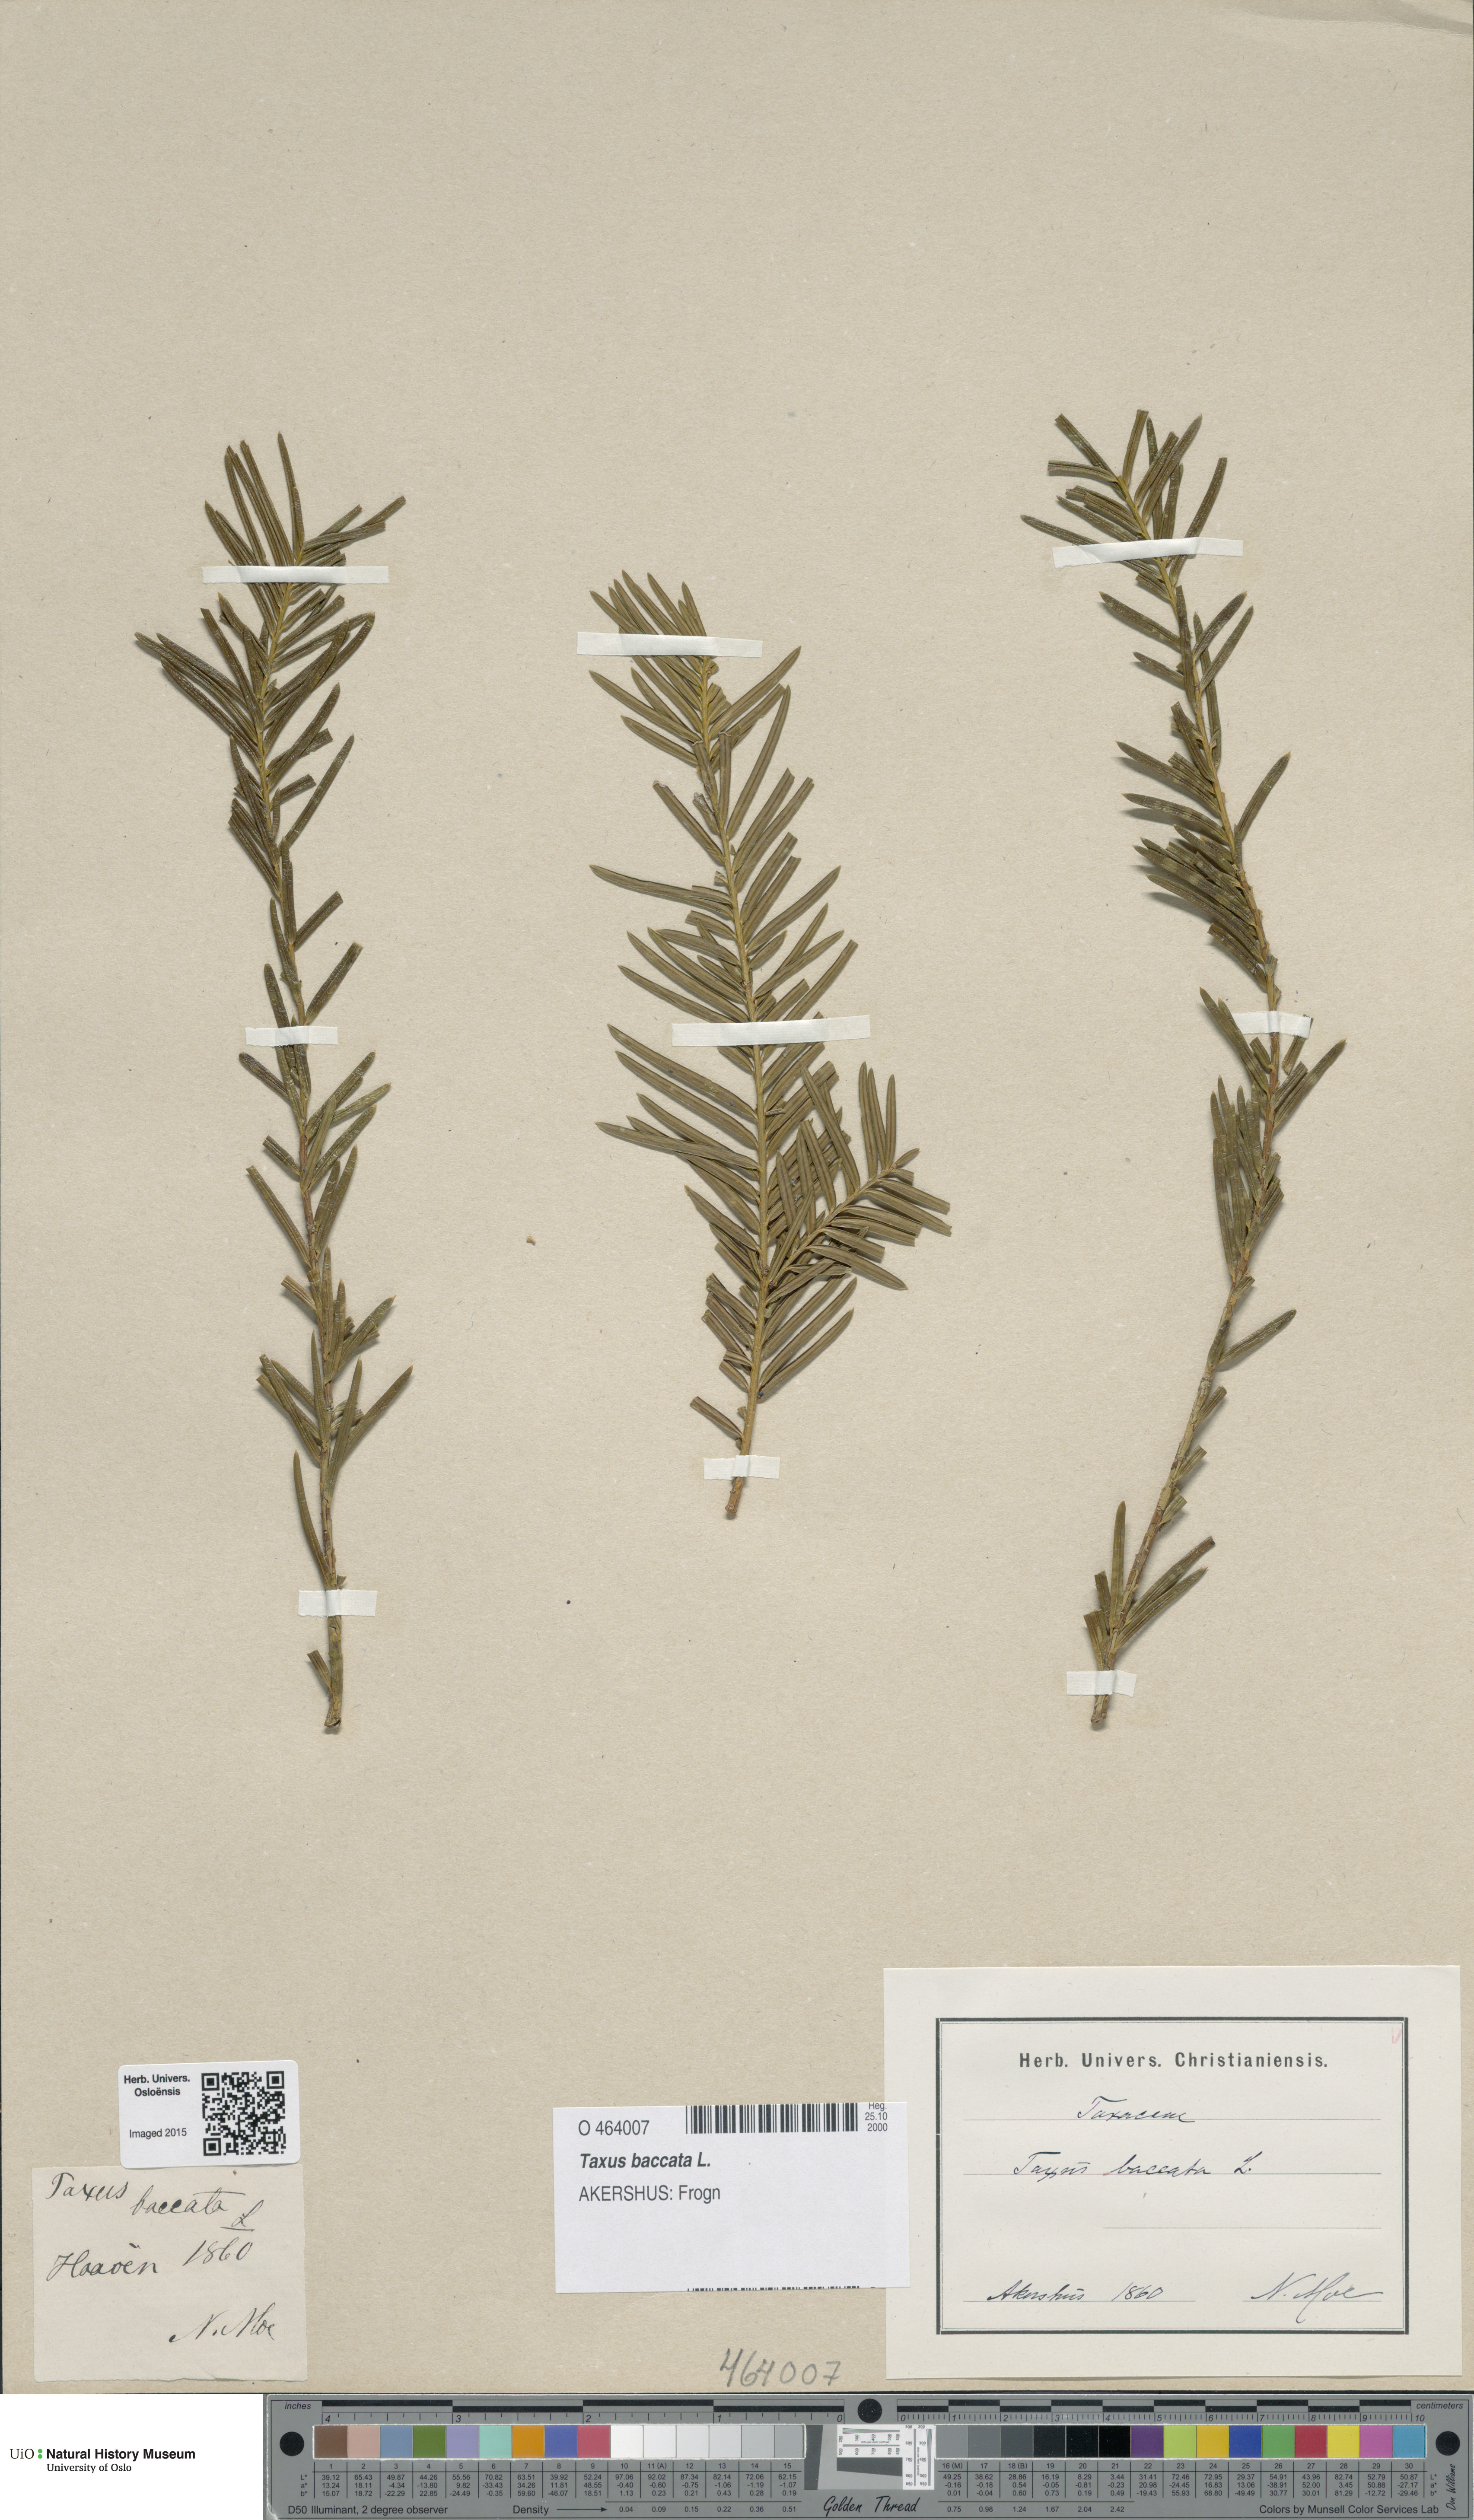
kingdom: Plantae
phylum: Tracheophyta
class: Pinopsida
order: Pinales
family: Taxaceae
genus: Taxus
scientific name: Taxus baccata
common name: Yew
